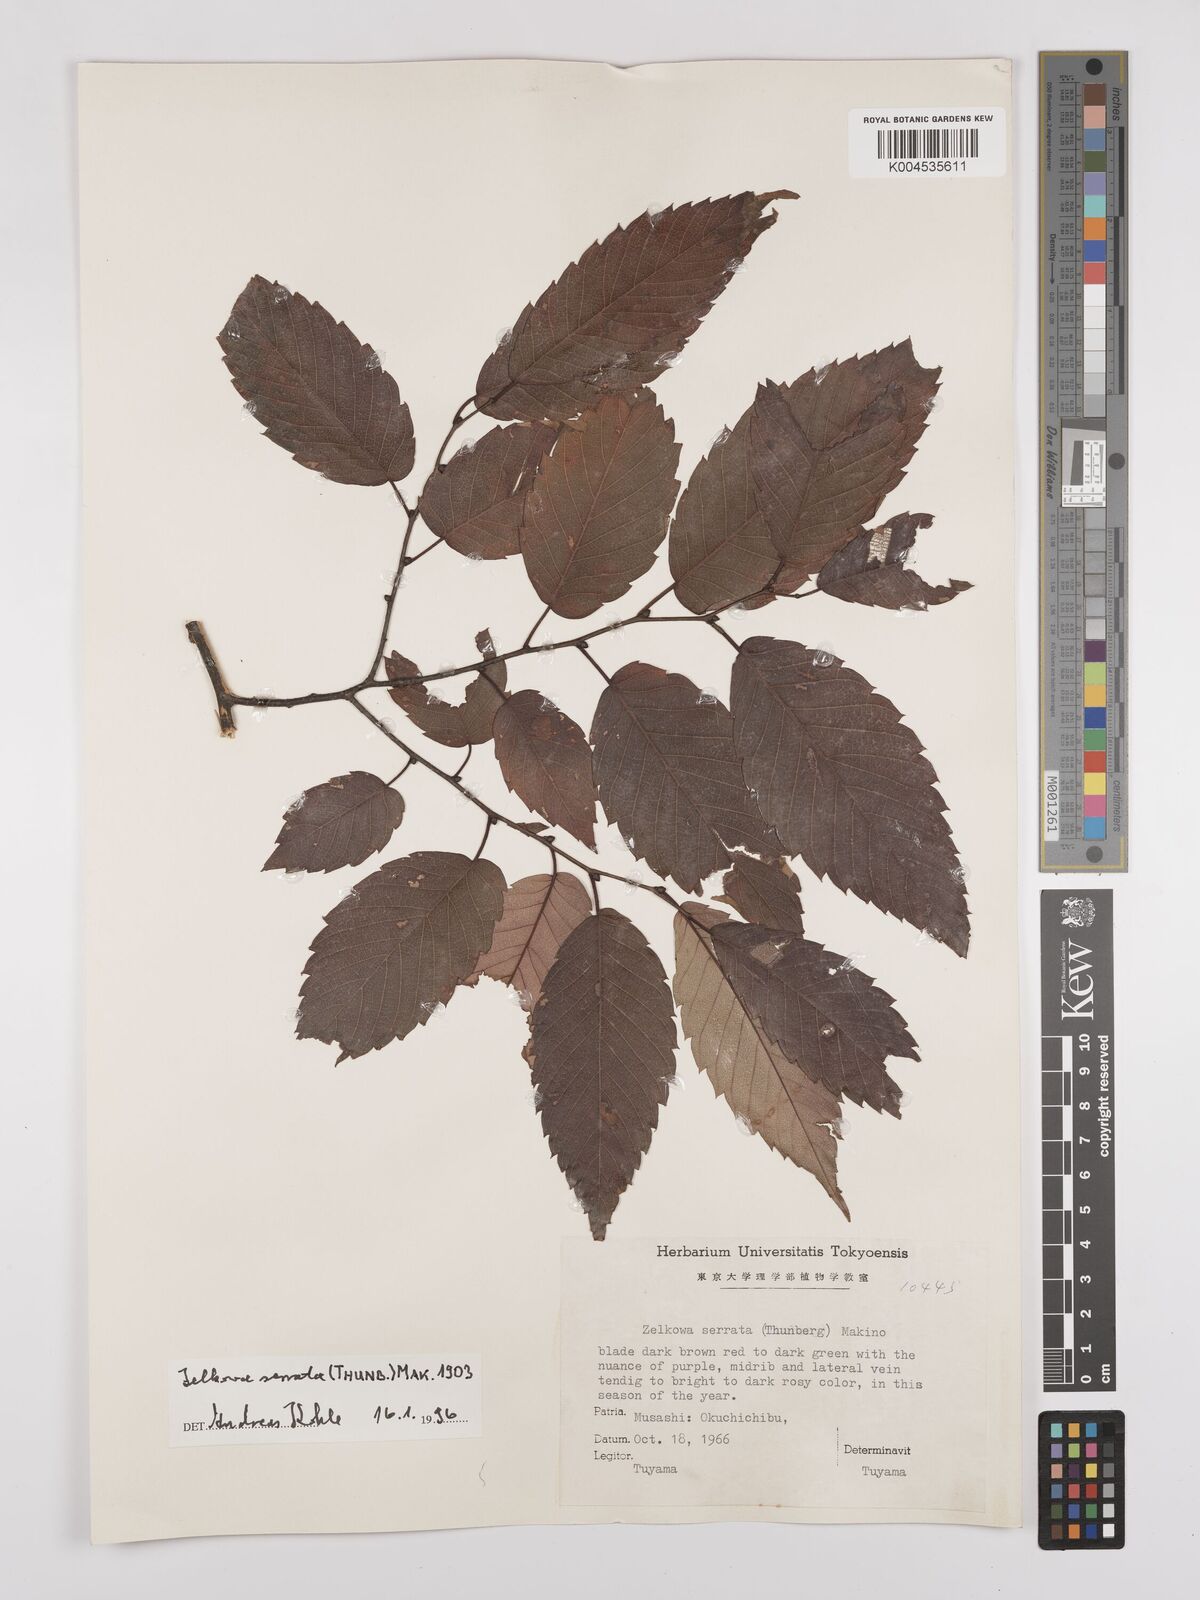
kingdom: Plantae
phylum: Tracheophyta
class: Magnoliopsida
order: Rosales
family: Ulmaceae
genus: Zelkova
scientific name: Zelkova serrata
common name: Japanese zelkova
